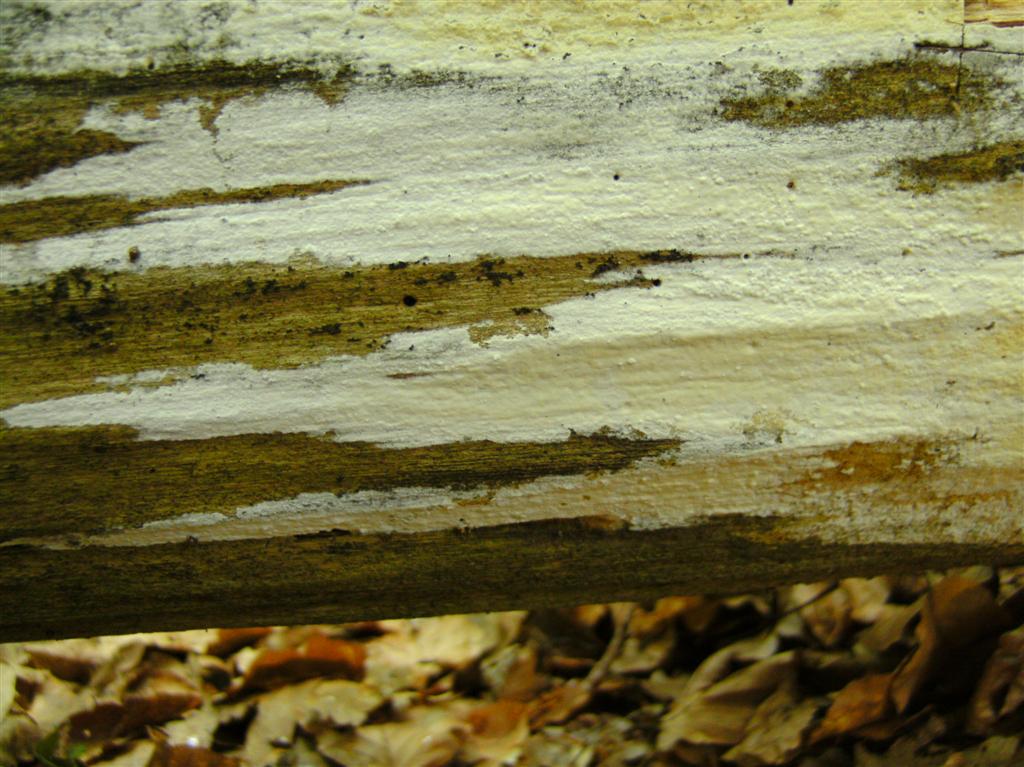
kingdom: Fungi
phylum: Basidiomycota
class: Agaricomycetes
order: Polyporales
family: Phanerochaetaceae
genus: Phanerochaete
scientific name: Phanerochaete sordida
